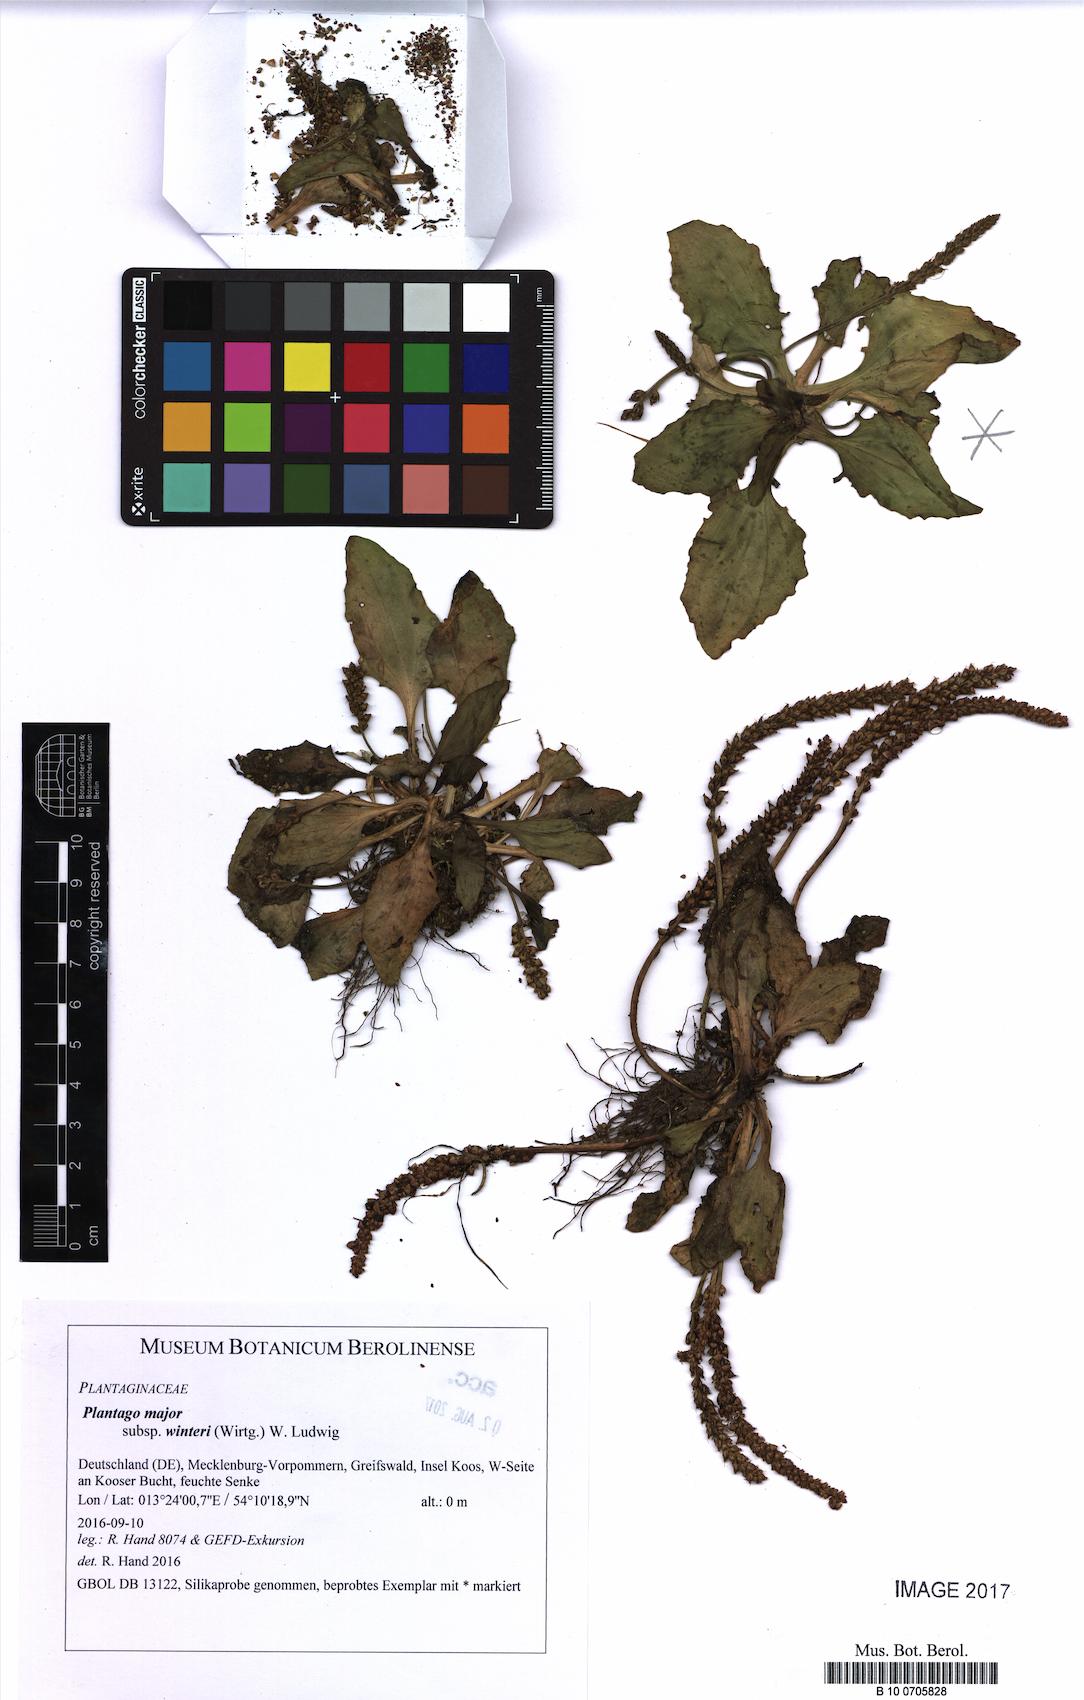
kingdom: Plantae
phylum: Tracheophyta
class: Magnoliopsida
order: Lamiales
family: Plantaginaceae
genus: Plantago
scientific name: Plantago uliginosa
